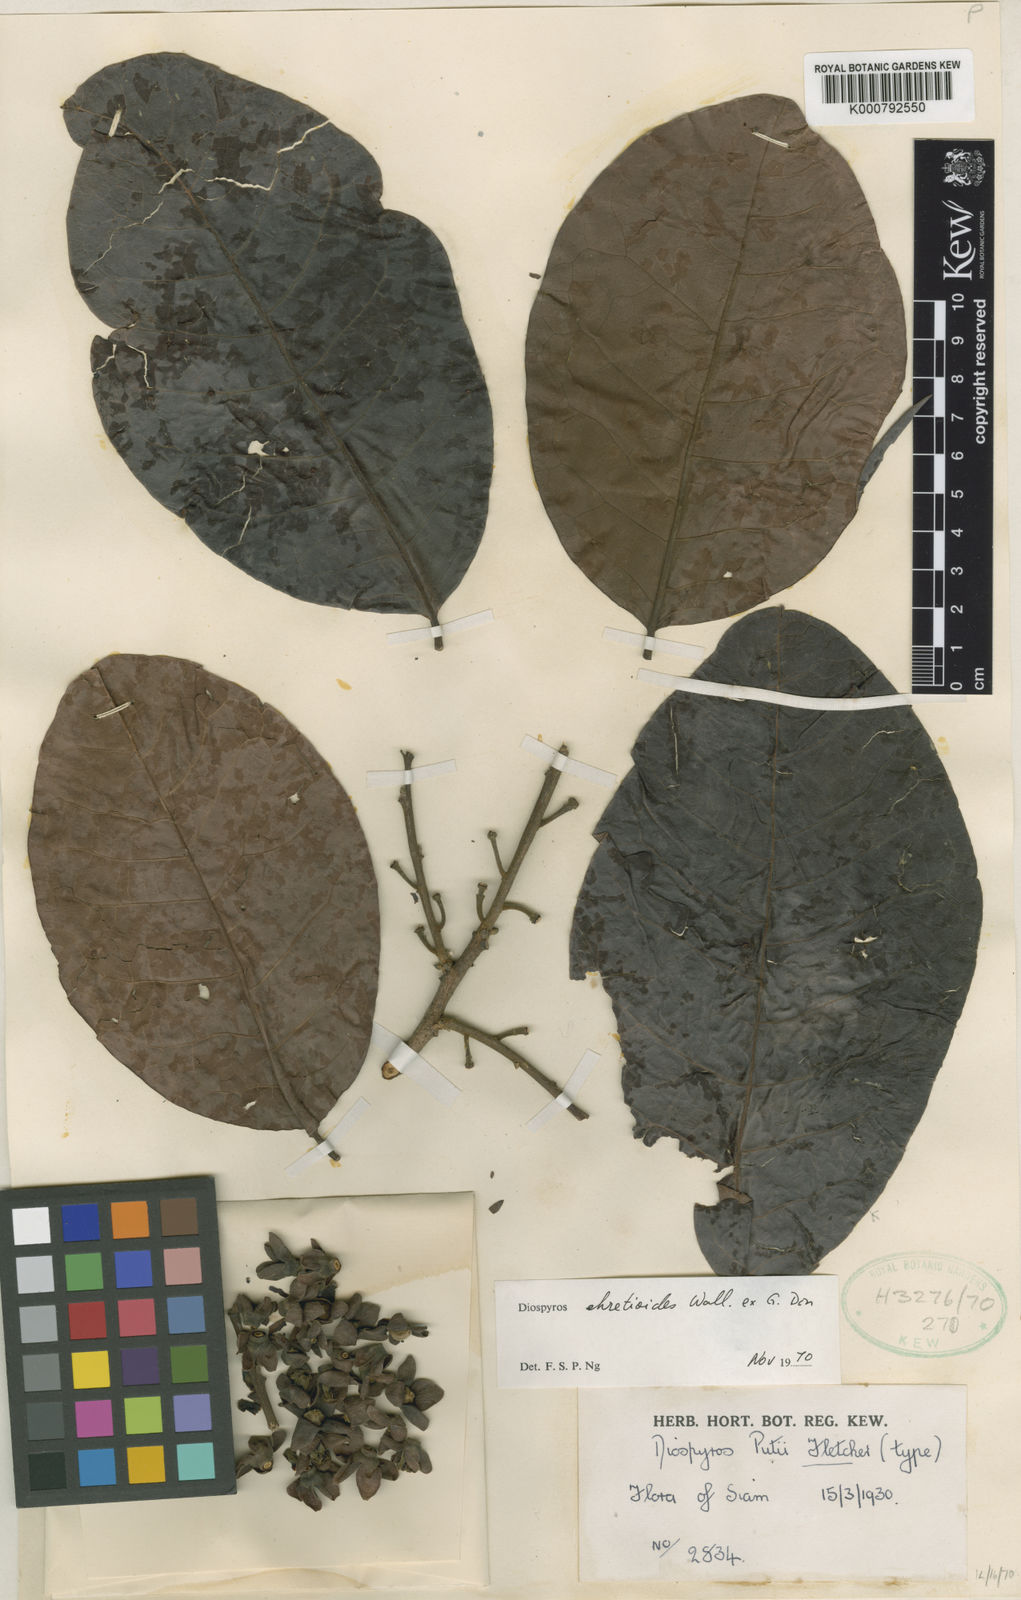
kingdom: Plantae
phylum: Tracheophyta
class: Magnoliopsida
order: Ericales
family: Ebenaceae
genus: Diospyros
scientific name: Diospyros ehretioides
